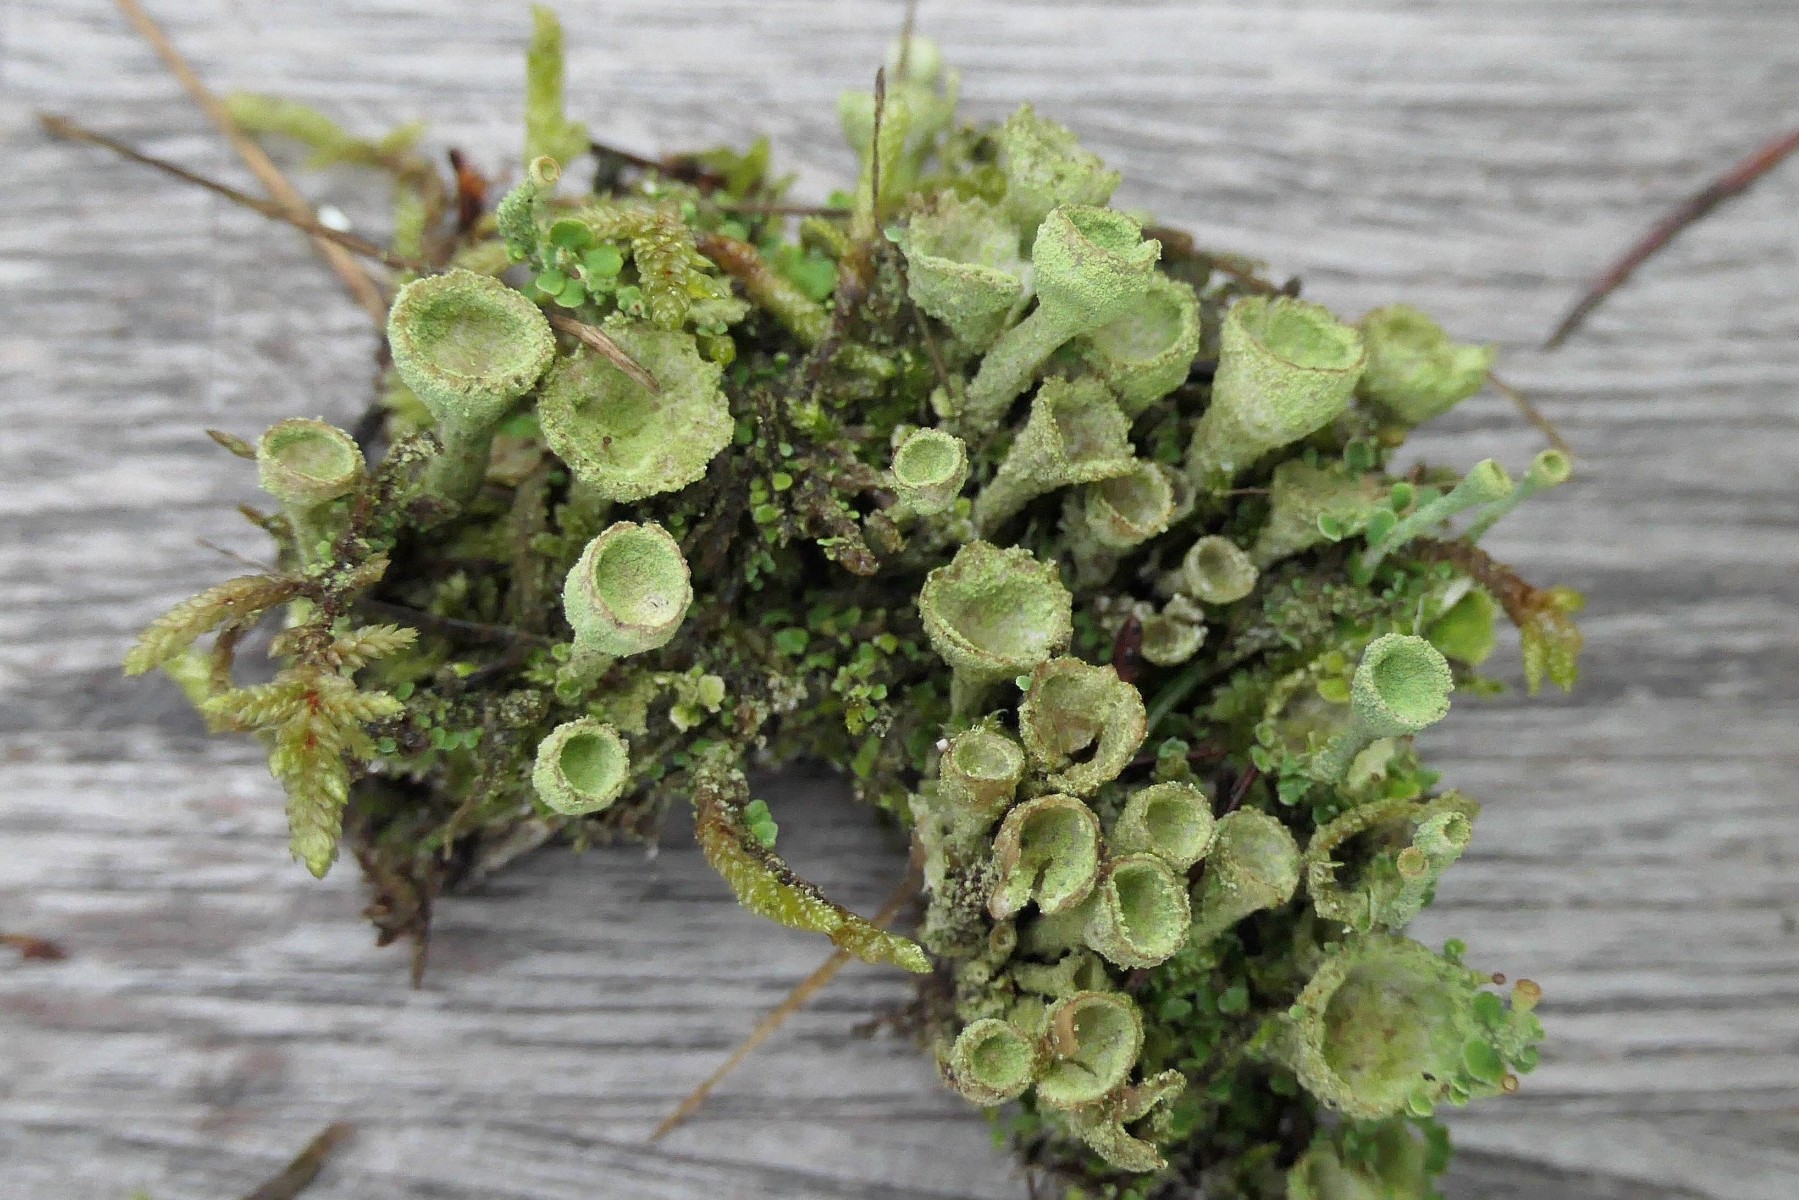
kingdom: Fungi
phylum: Ascomycota
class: Lecanoromycetes
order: Lecanorales
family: Cladoniaceae
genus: Cladonia
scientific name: Cladonia fimbriata
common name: bleggrøn bægerlav
